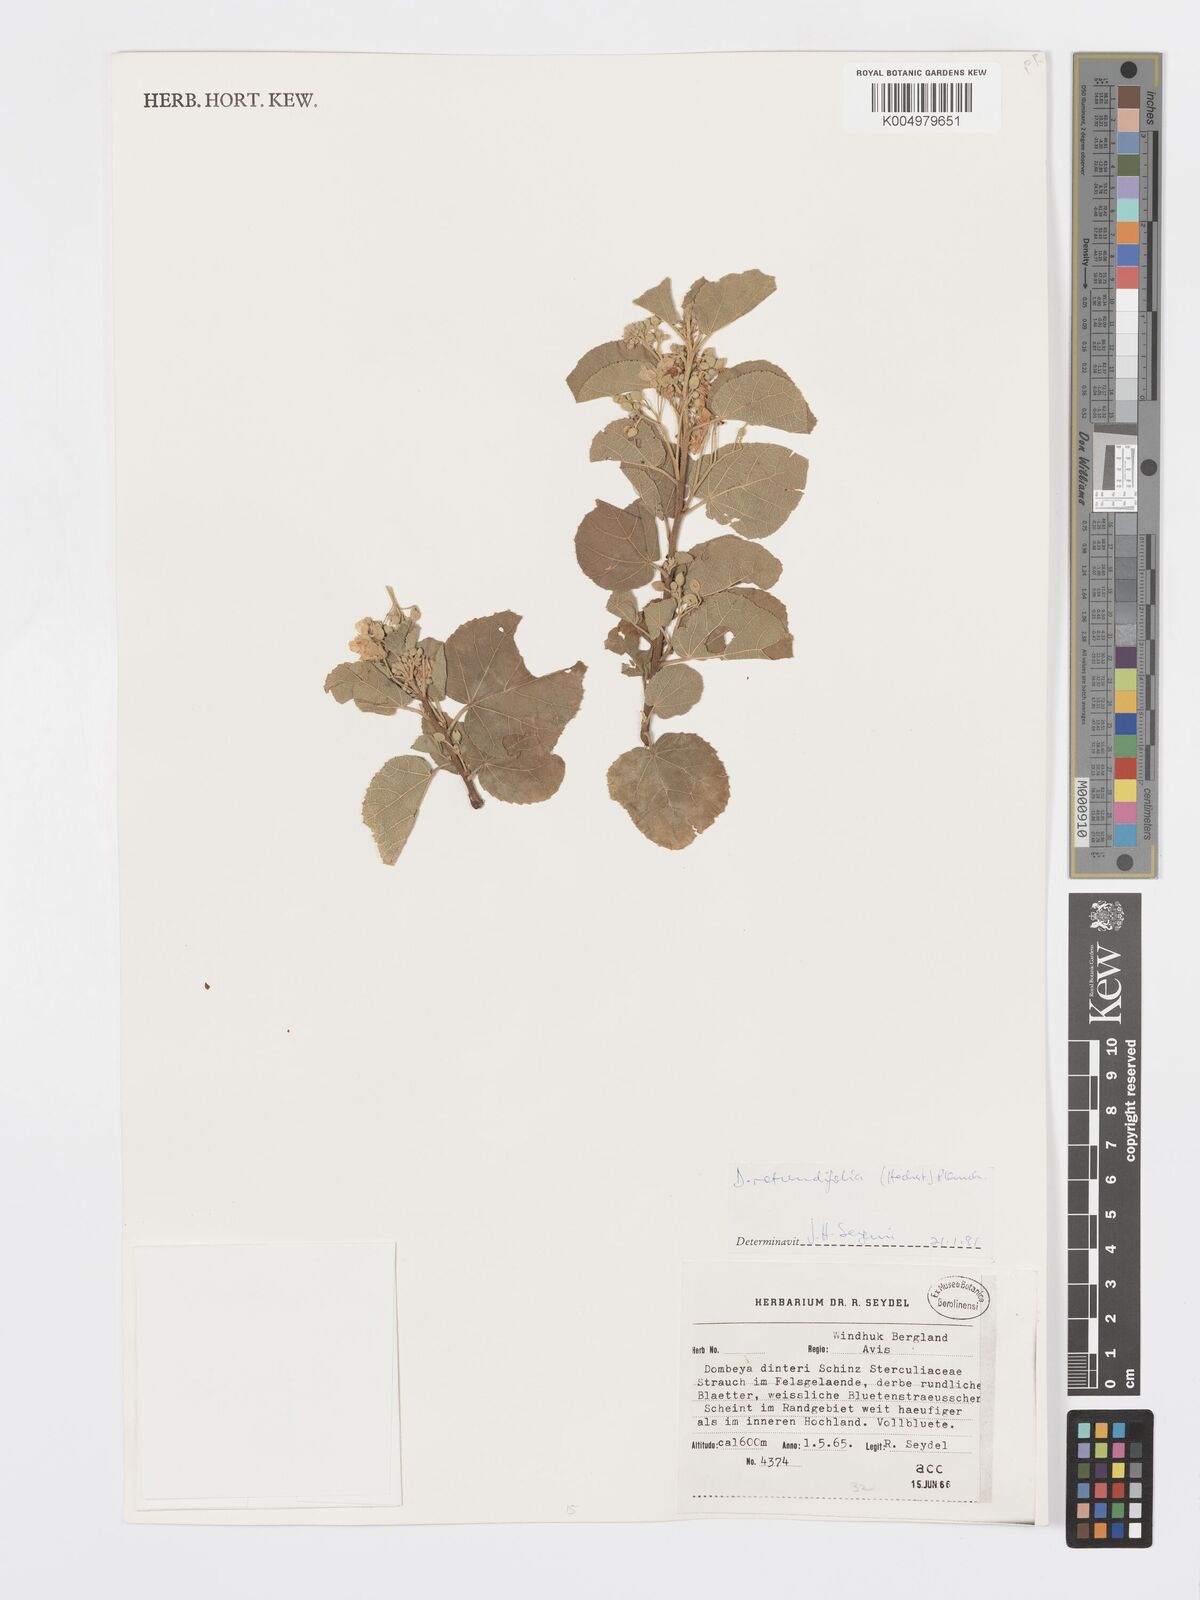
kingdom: Plantae
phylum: Tracheophyta
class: Magnoliopsida
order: Malvales
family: Malvaceae
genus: Dombeya
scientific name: Dombeya rotundifolia
